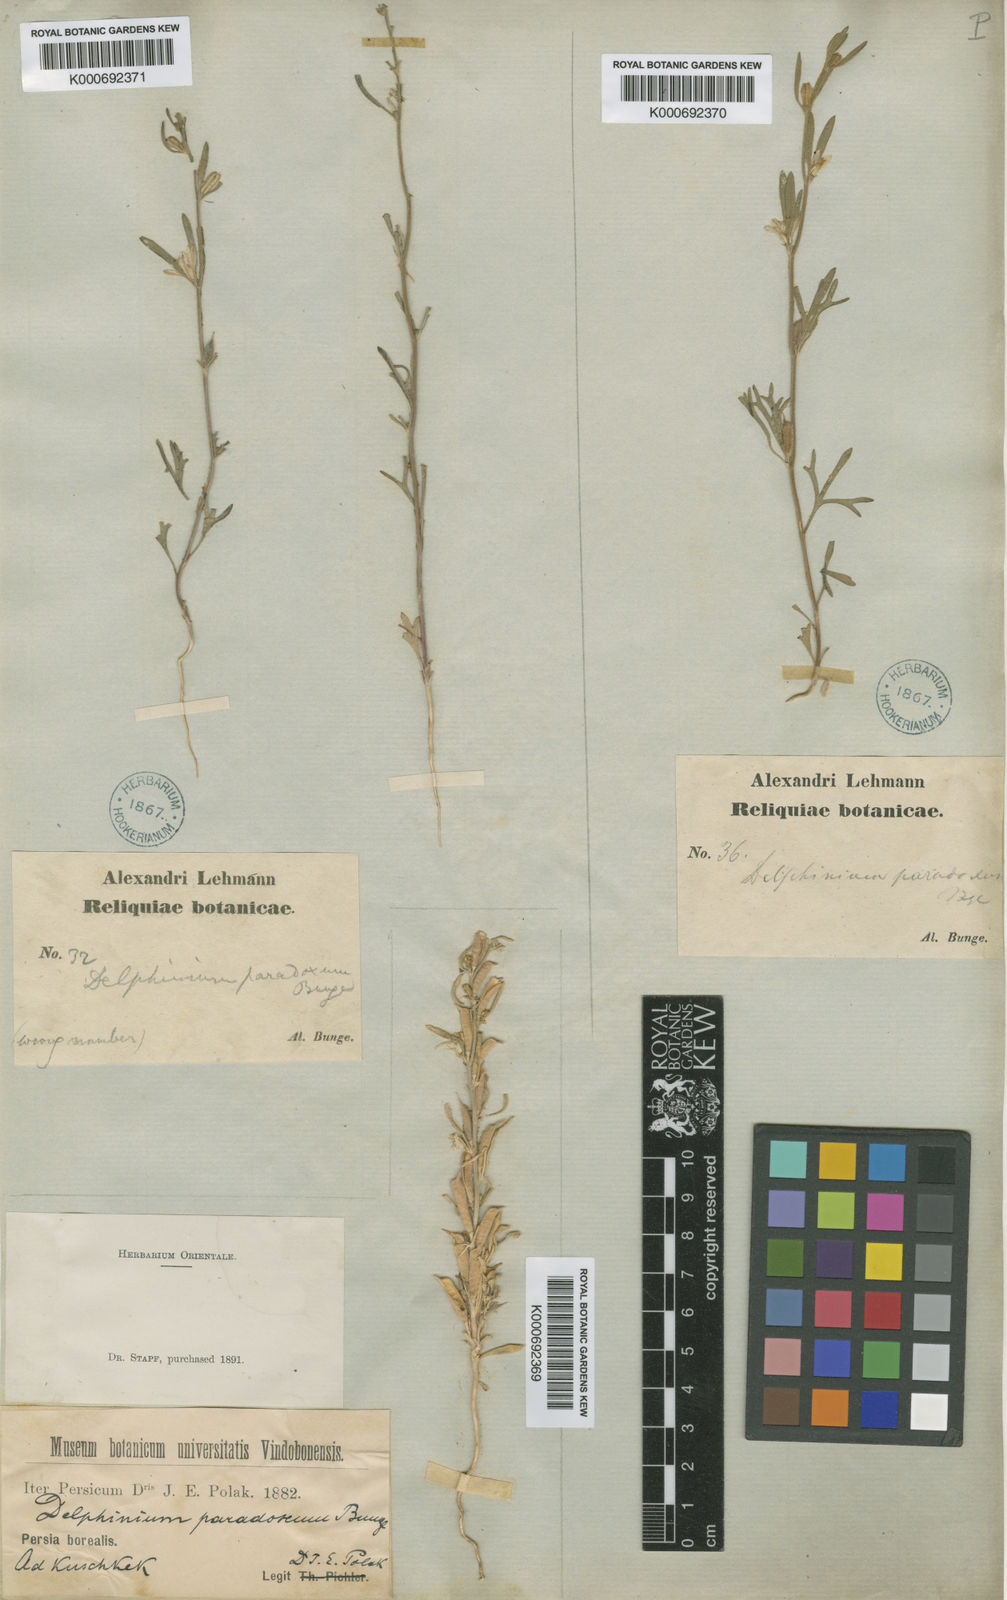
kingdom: Plantae
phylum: Tracheophyta
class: Magnoliopsida
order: Ranunculales
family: Ranunculaceae
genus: Delphinium
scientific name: Delphinium paradoxum
